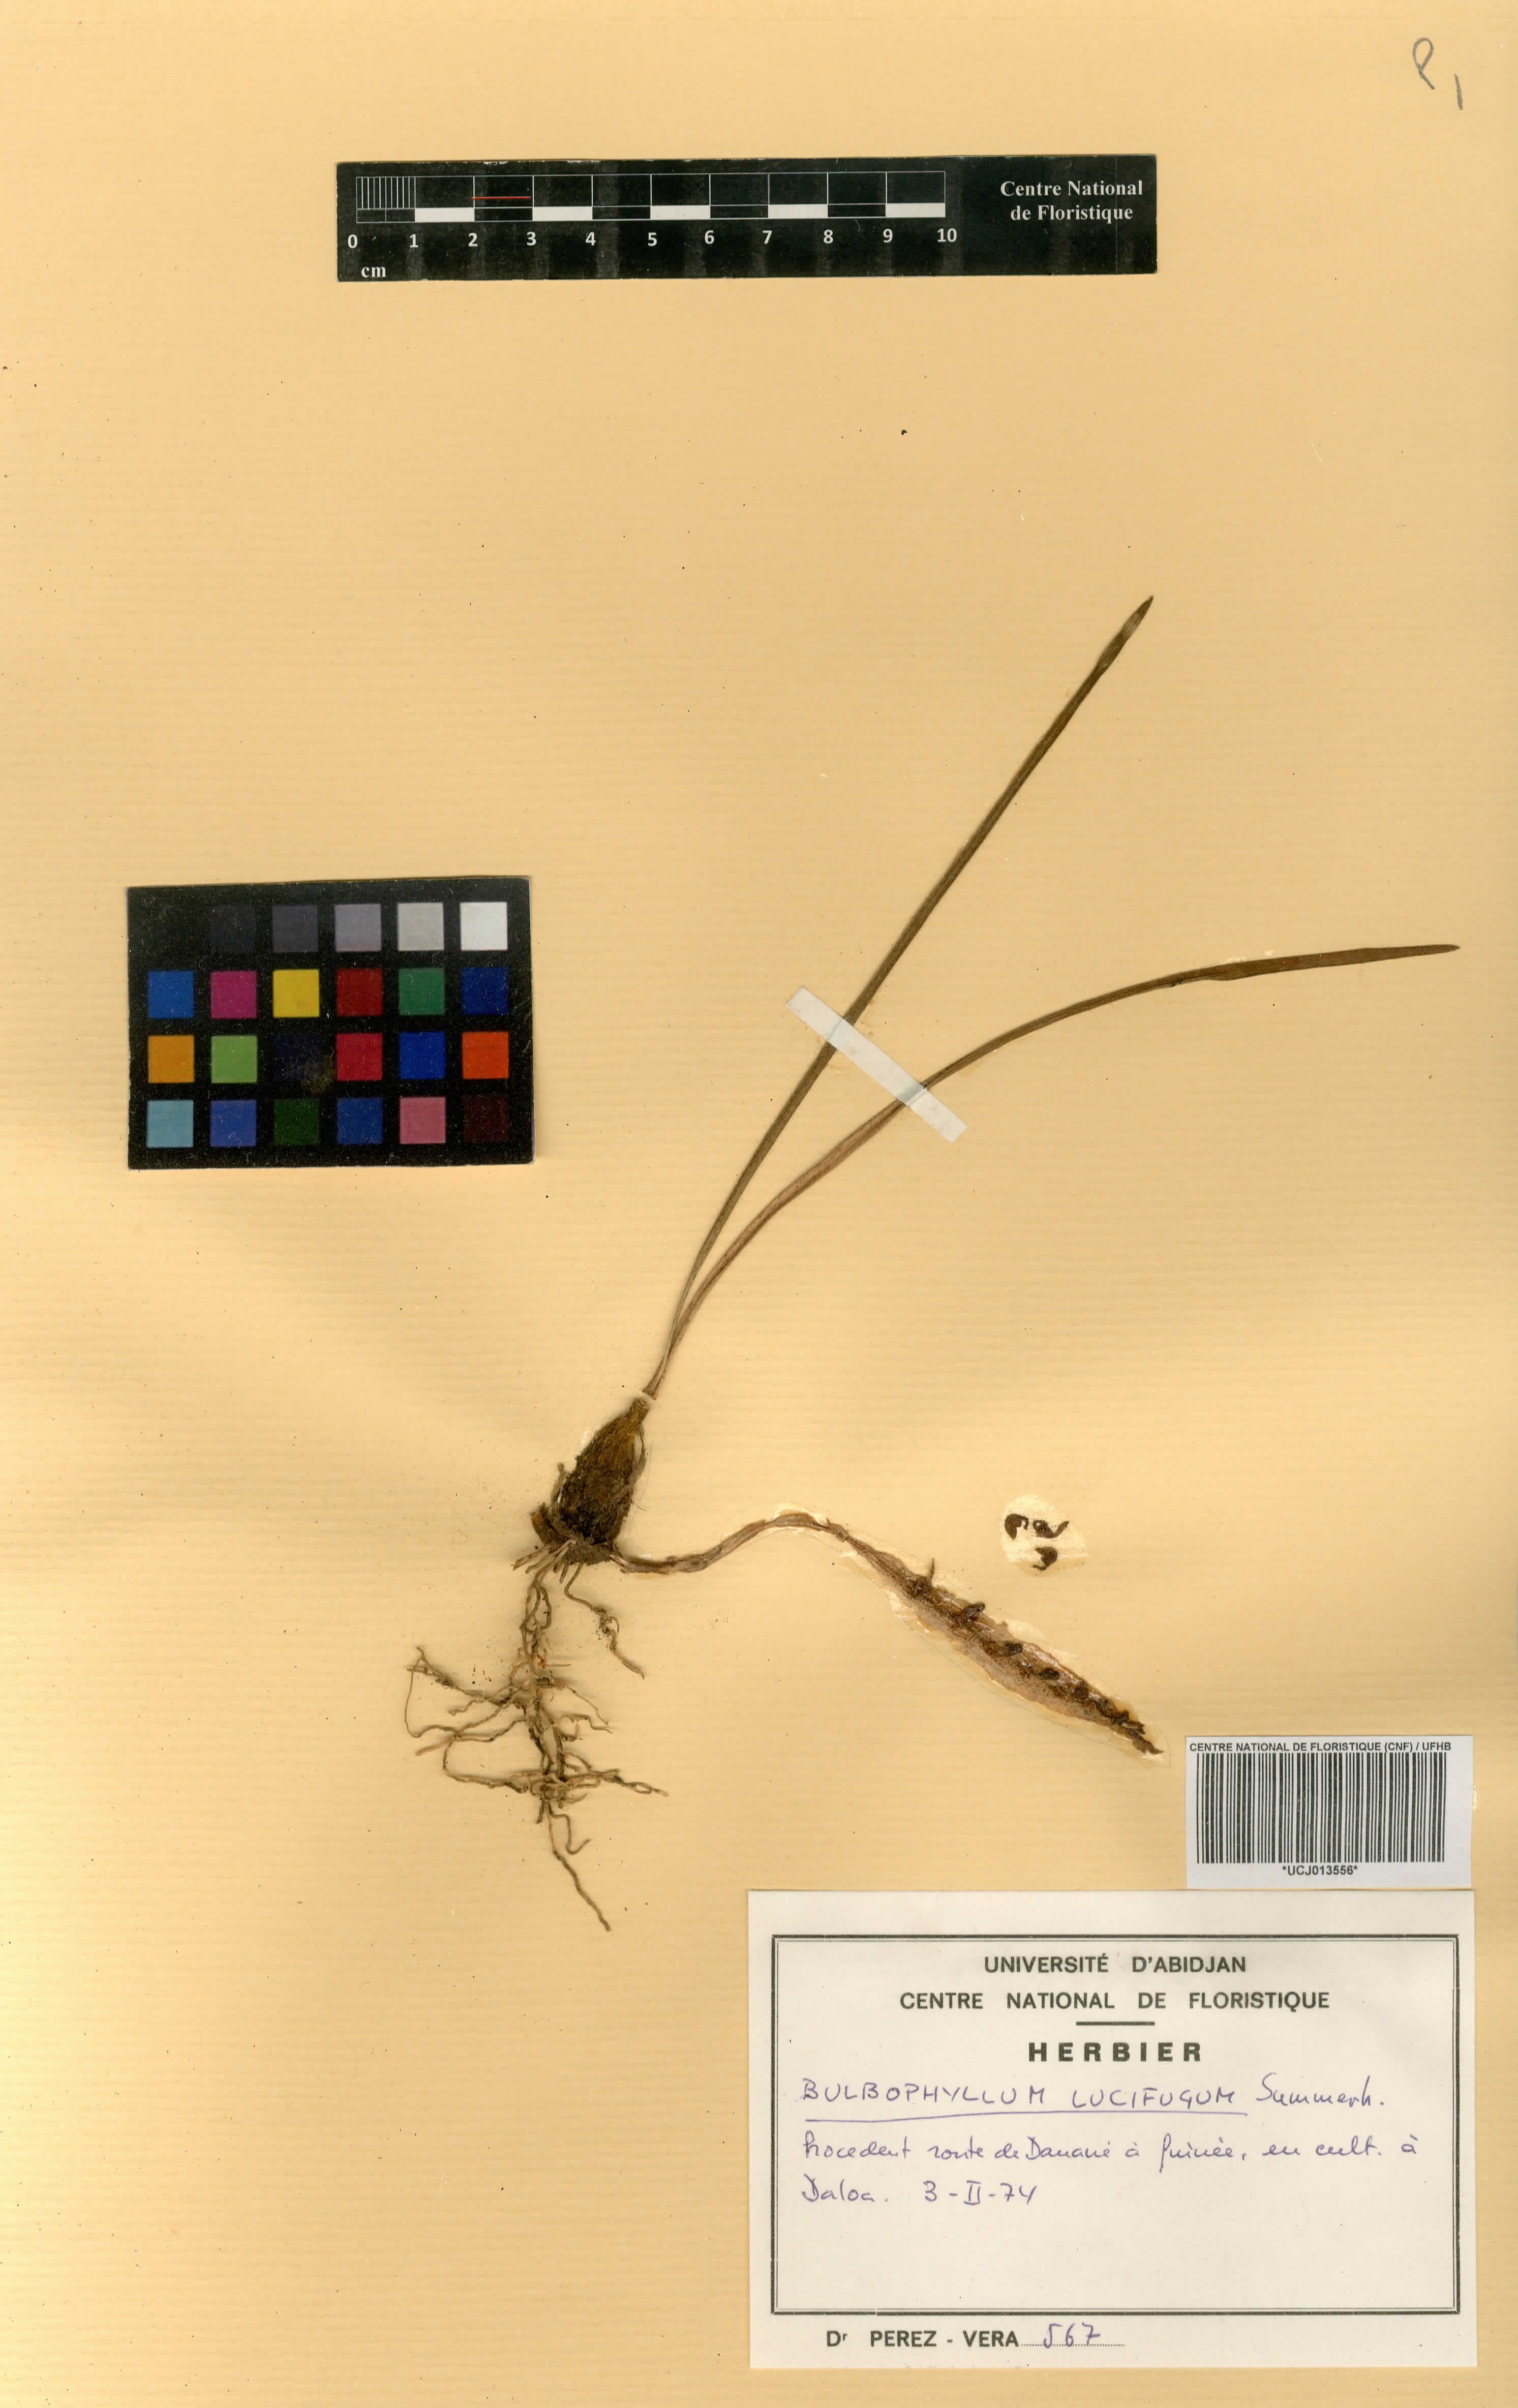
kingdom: Plantae
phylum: Tracheophyta
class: Liliopsida
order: Asparagales
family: Orchidaceae
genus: Bulbophyllum
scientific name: Bulbophyllum calyptratum
